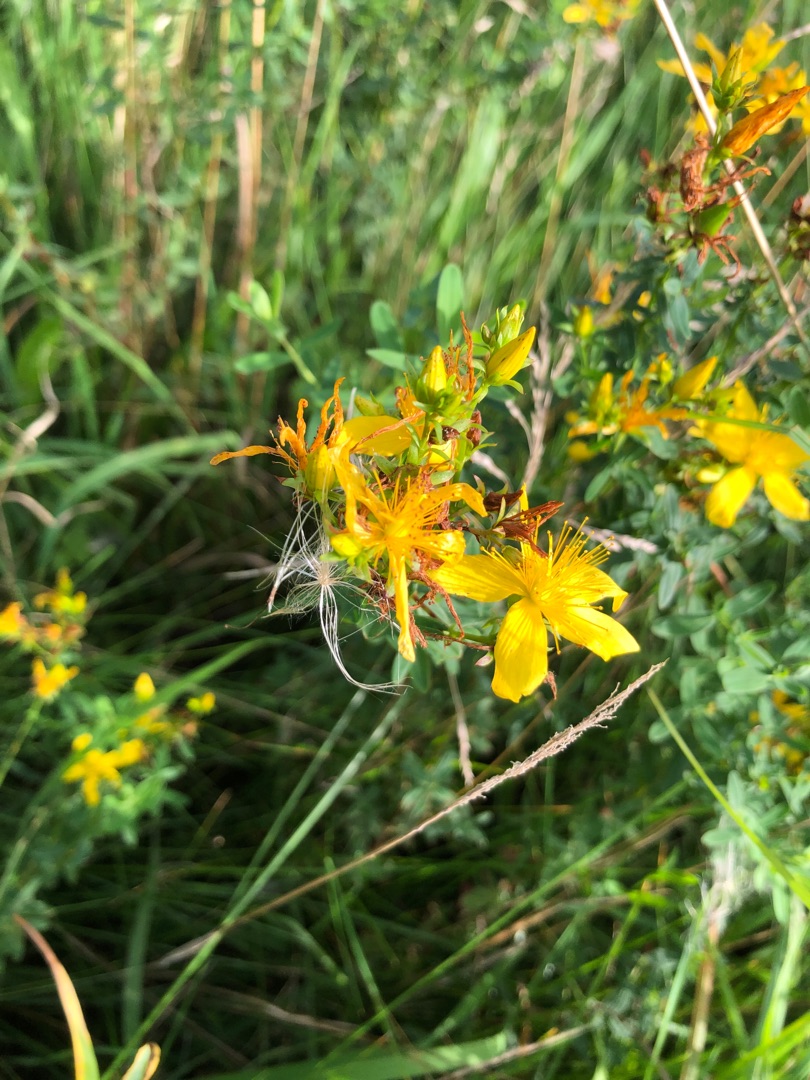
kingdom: Plantae
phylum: Tracheophyta
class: Magnoliopsida
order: Malpighiales
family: Hypericaceae
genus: Hypericum
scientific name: Hypericum perforatum
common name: Prikbladet perikon
